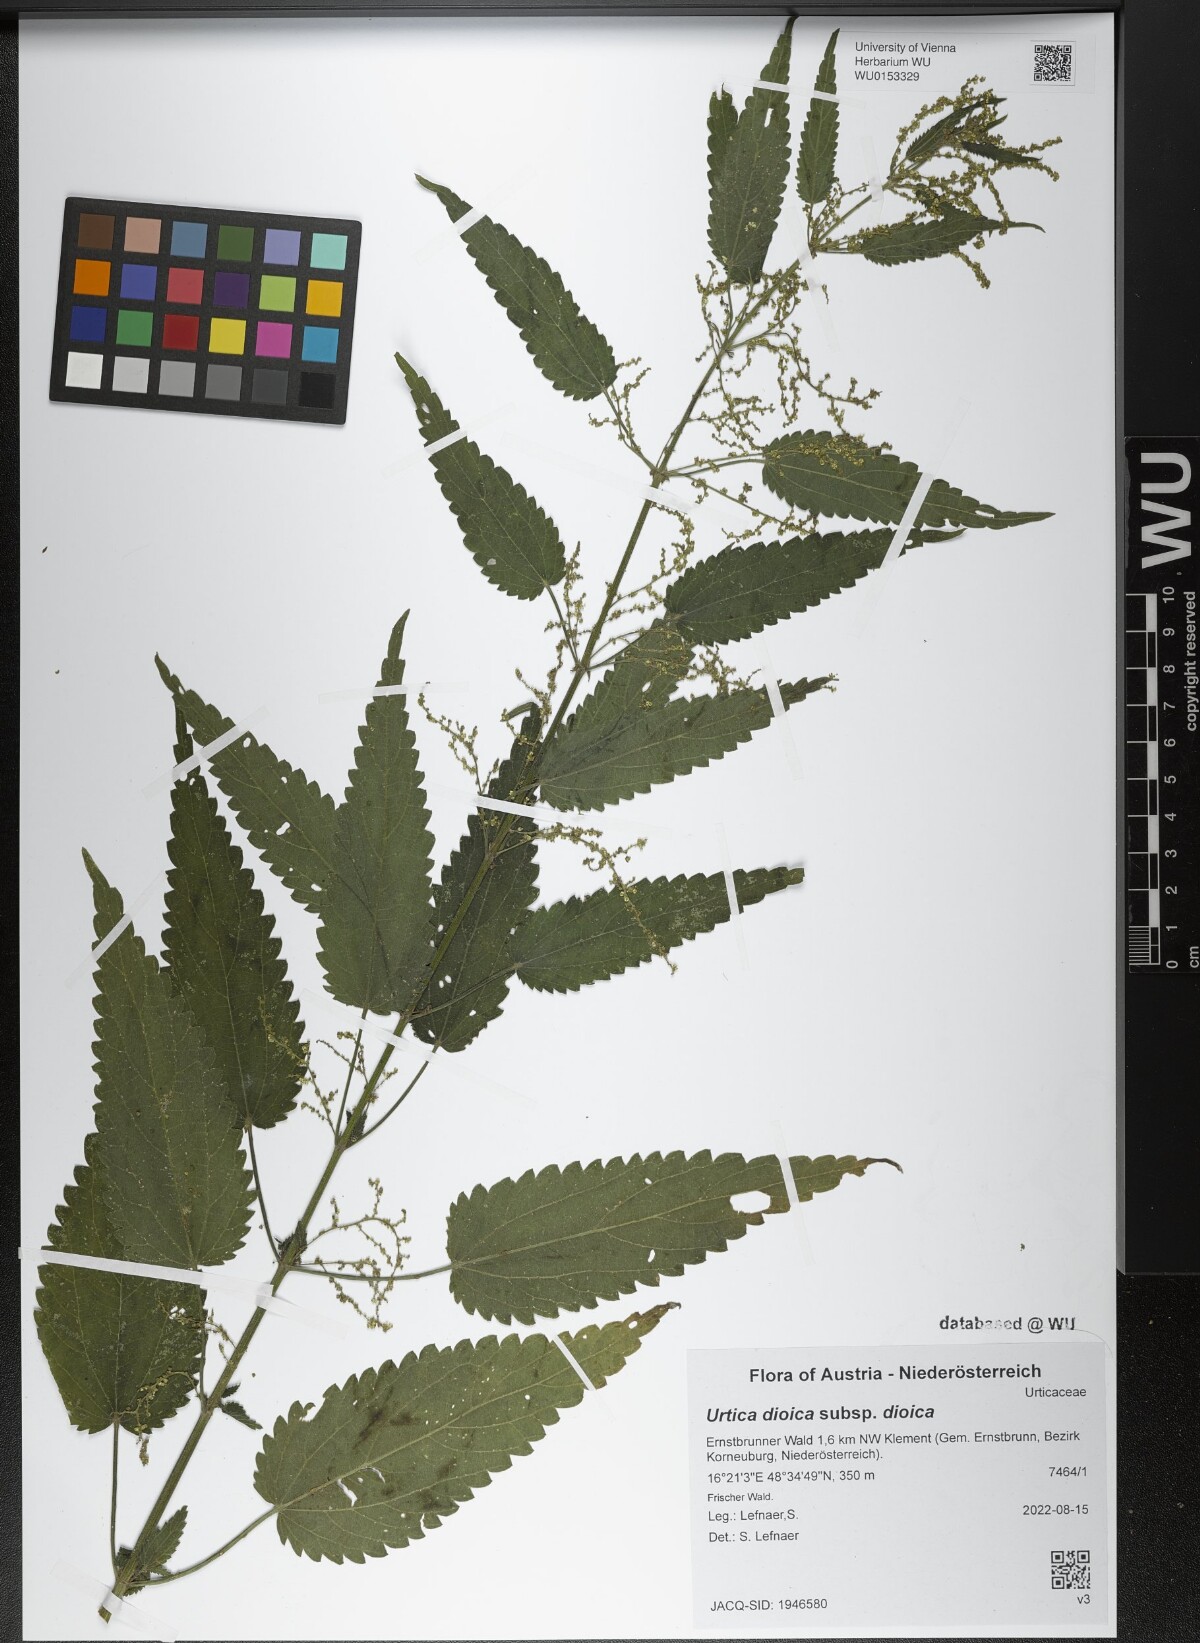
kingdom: Plantae
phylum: Tracheophyta
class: Magnoliopsida
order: Rosales
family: Urticaceae
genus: Urtica
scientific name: Urtica dioica
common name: Common nettle
